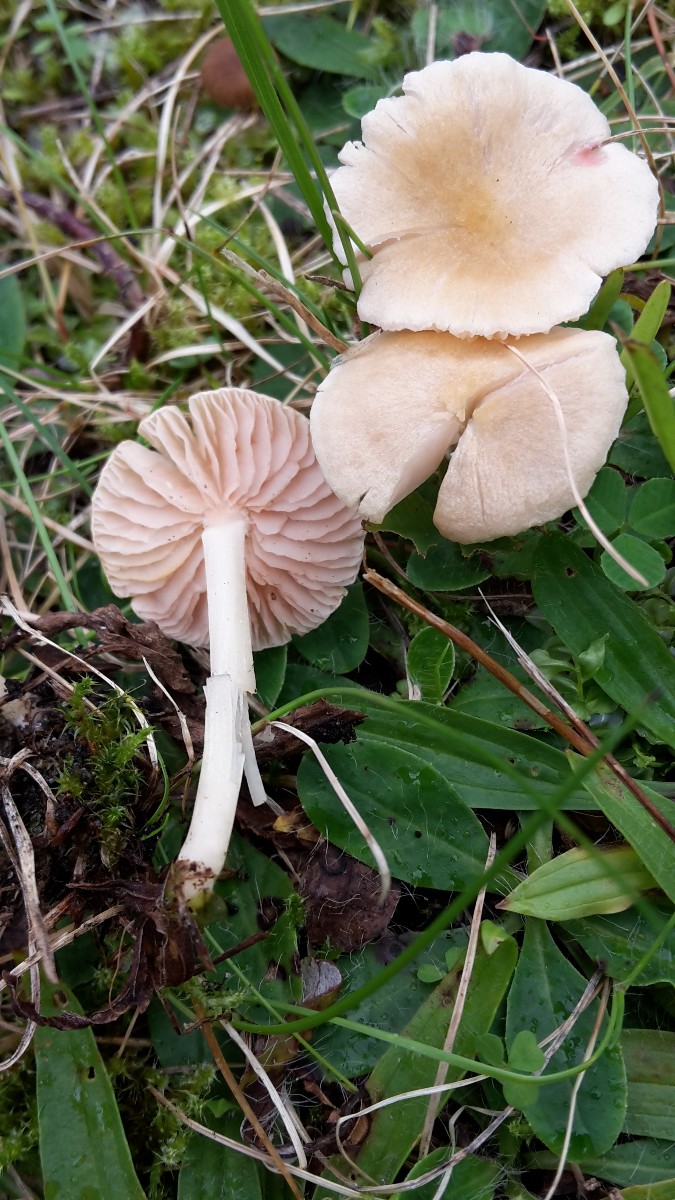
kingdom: Fungi
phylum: Basidiomycota
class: Agaricomycetes
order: Agaricales
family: Entolomataceae
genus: Entoloma
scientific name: Entoloma sericellum
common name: silkehvid rødblad
